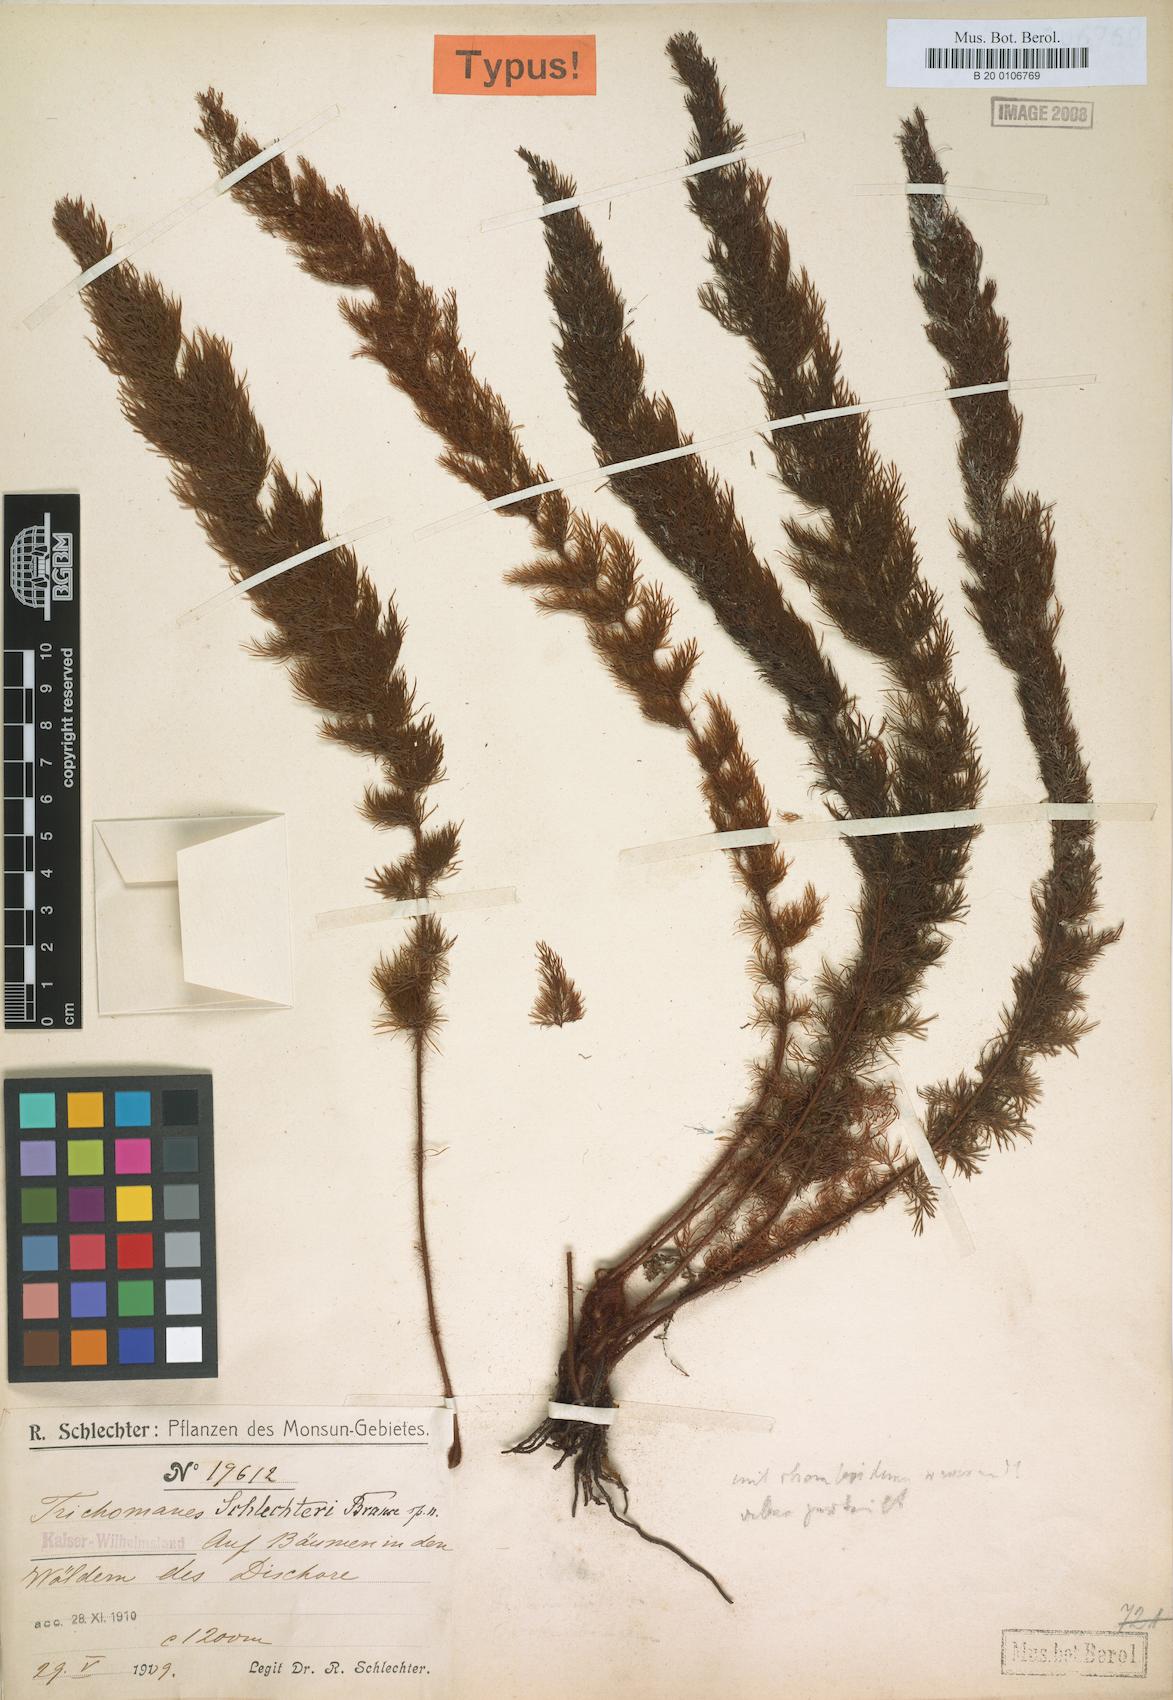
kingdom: Plantae
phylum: Tracheophyta
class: Polypodiopsida
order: Hymenophyllales
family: Hymenophyllaceae
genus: Abrodictyum
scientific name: Abrodictyum schlechteri
